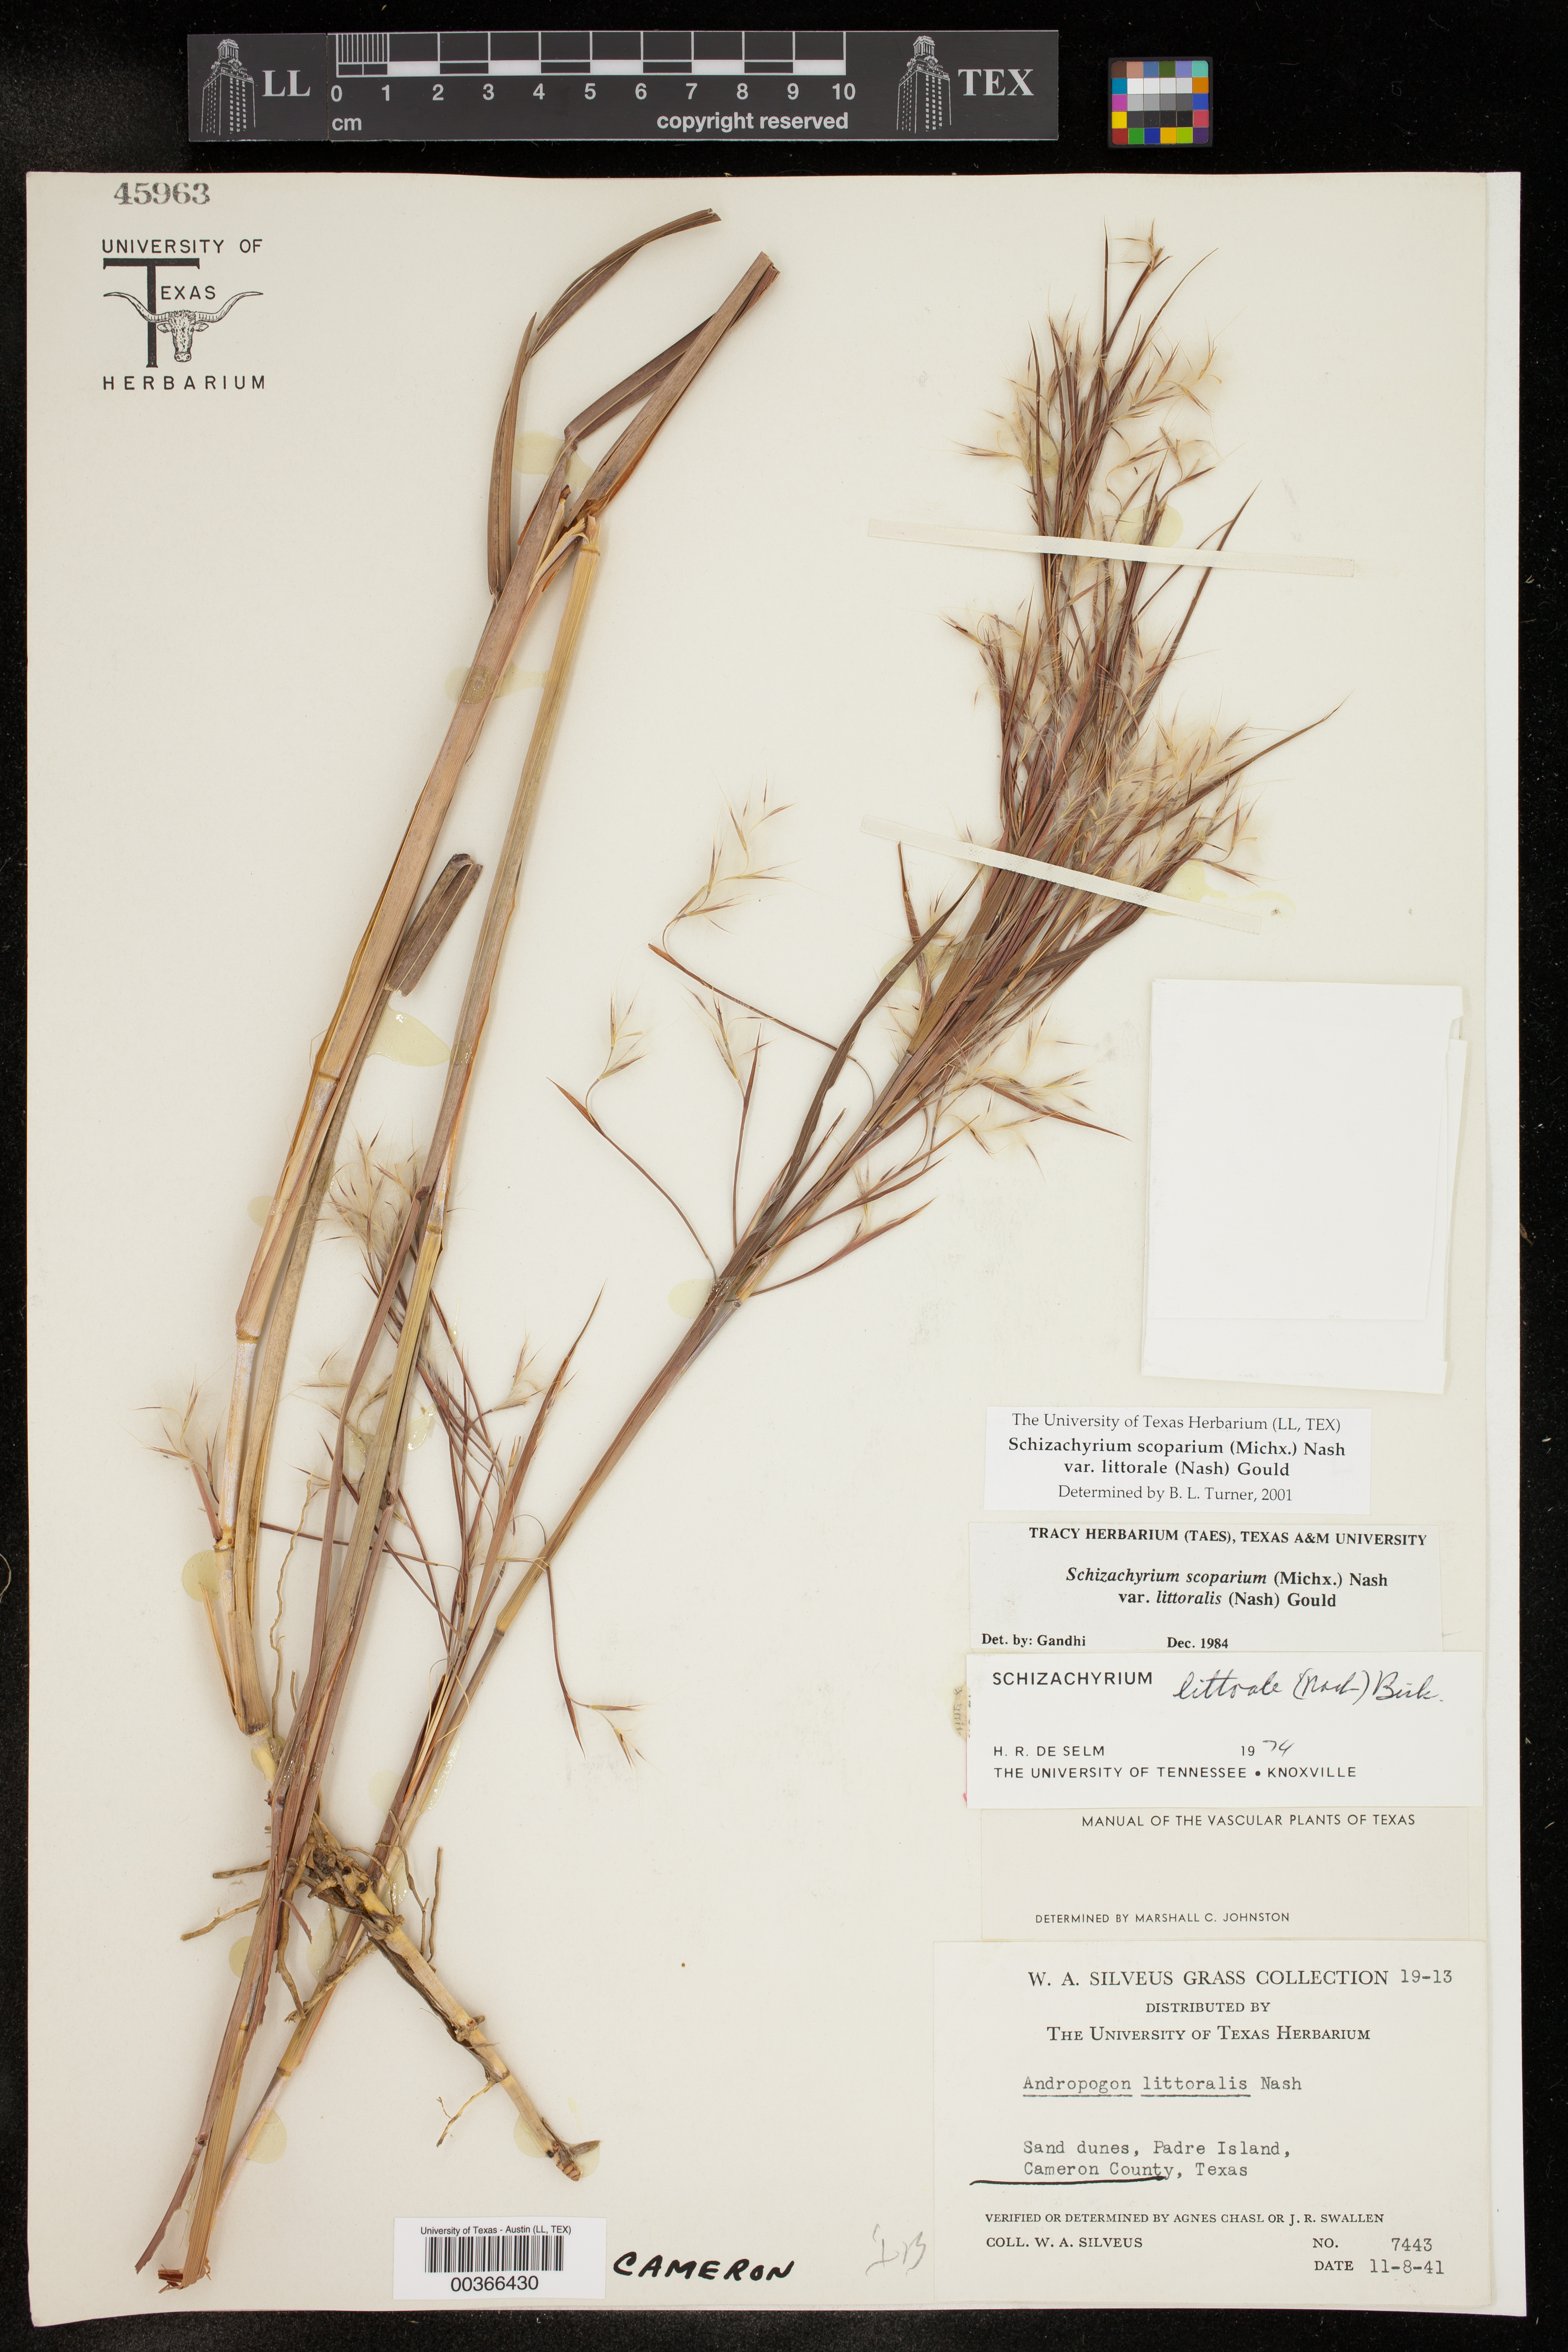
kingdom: Plantae
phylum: Tracheophyta
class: Liliopsida
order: Poales
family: Poaceae
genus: Schizachyrium
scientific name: Schizachyrium scoparium
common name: Little bluestem
